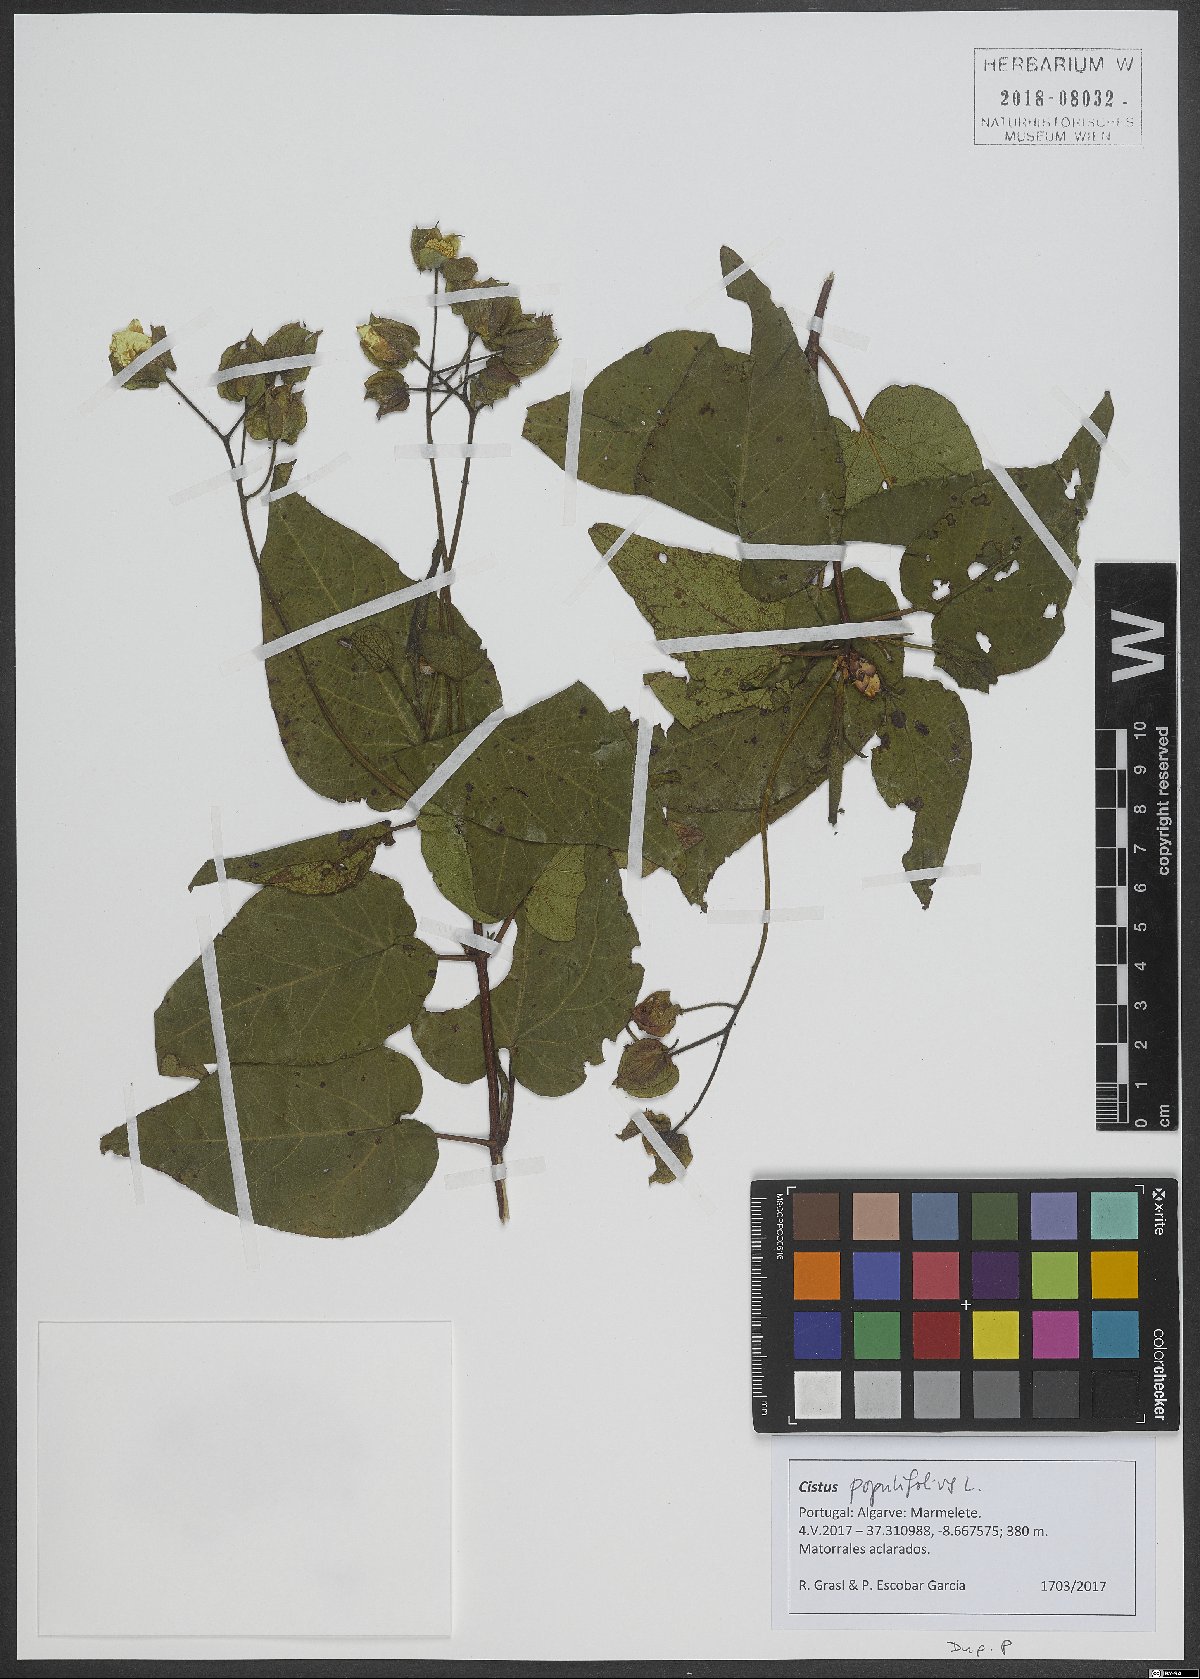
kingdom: Plantae
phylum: Tracheophyta
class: Magnoliopsida
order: Malvales
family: Cistaceae
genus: Cistus
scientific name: Cistus populifolius
